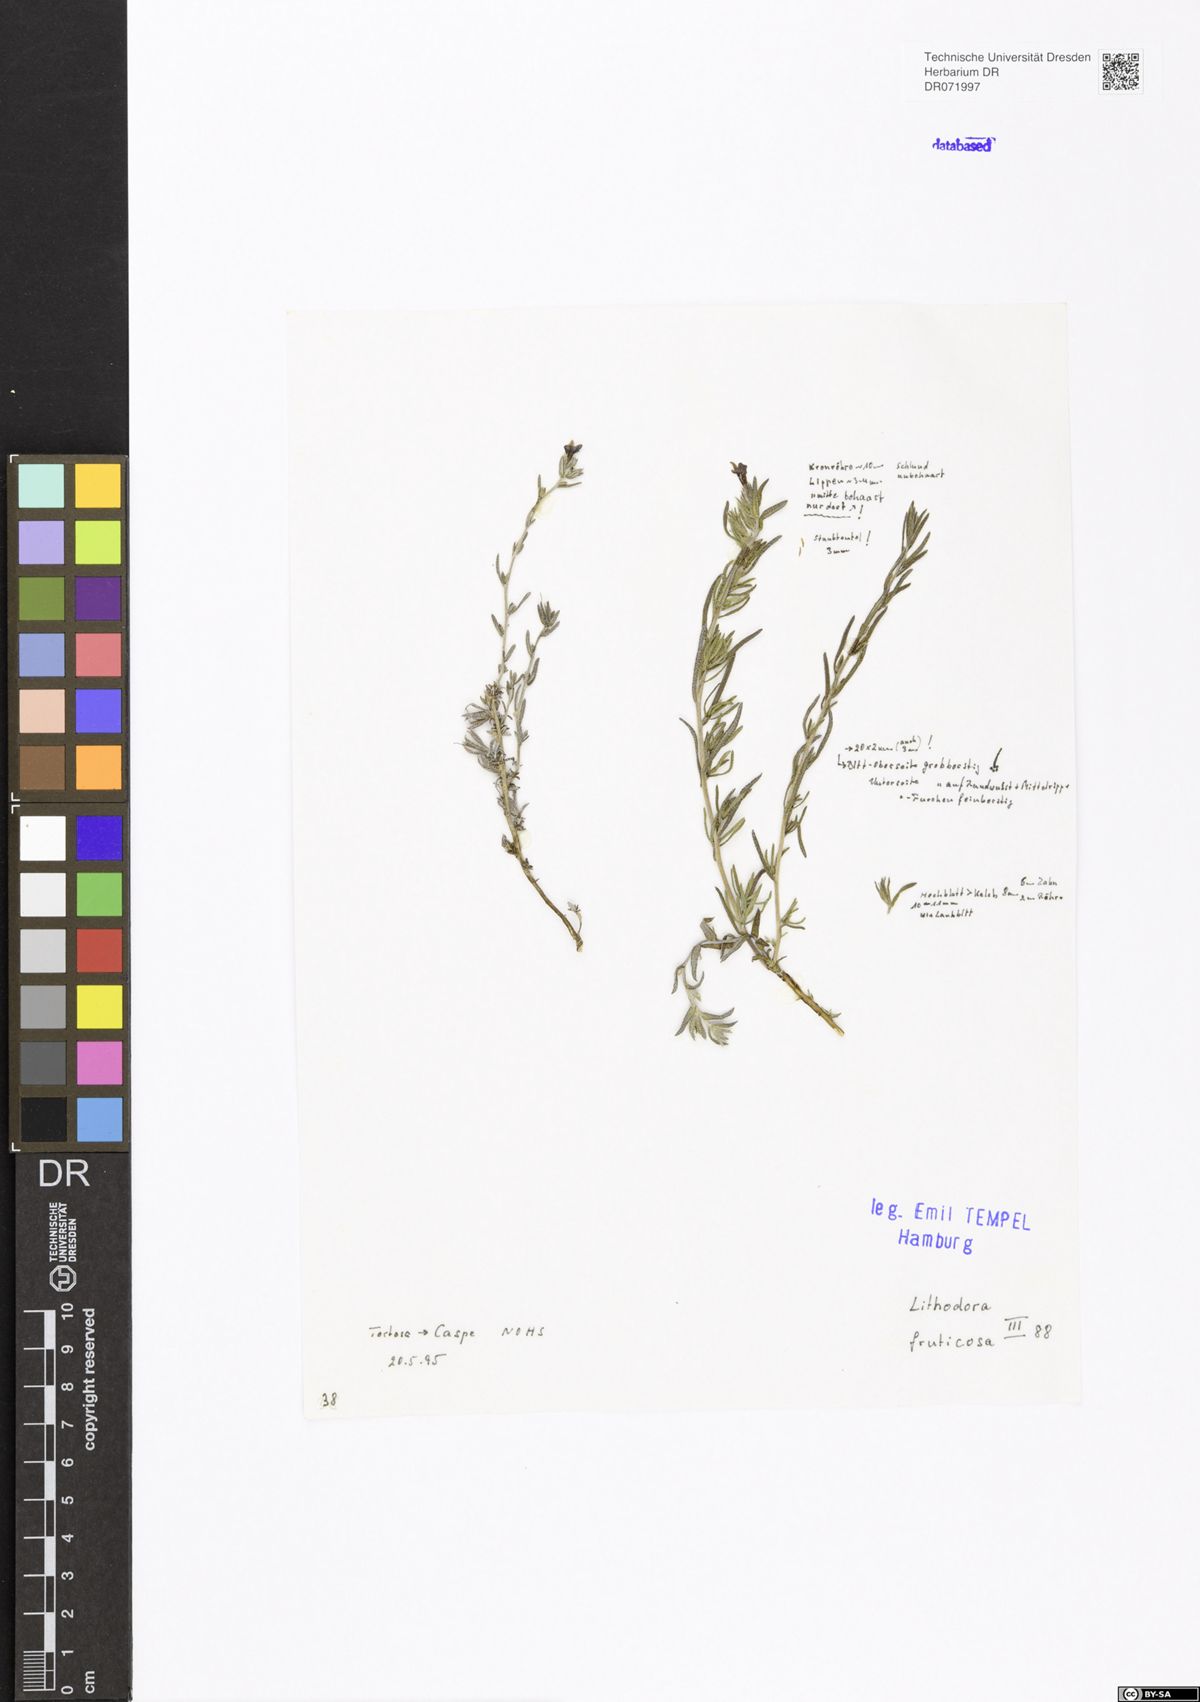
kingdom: Plantae
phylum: Tracheophyta
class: Magnoliopsida
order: Boraginales
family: Boraginaceae
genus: Lithodora
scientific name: Lithodora fruticosa
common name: Shrubby gromwell
